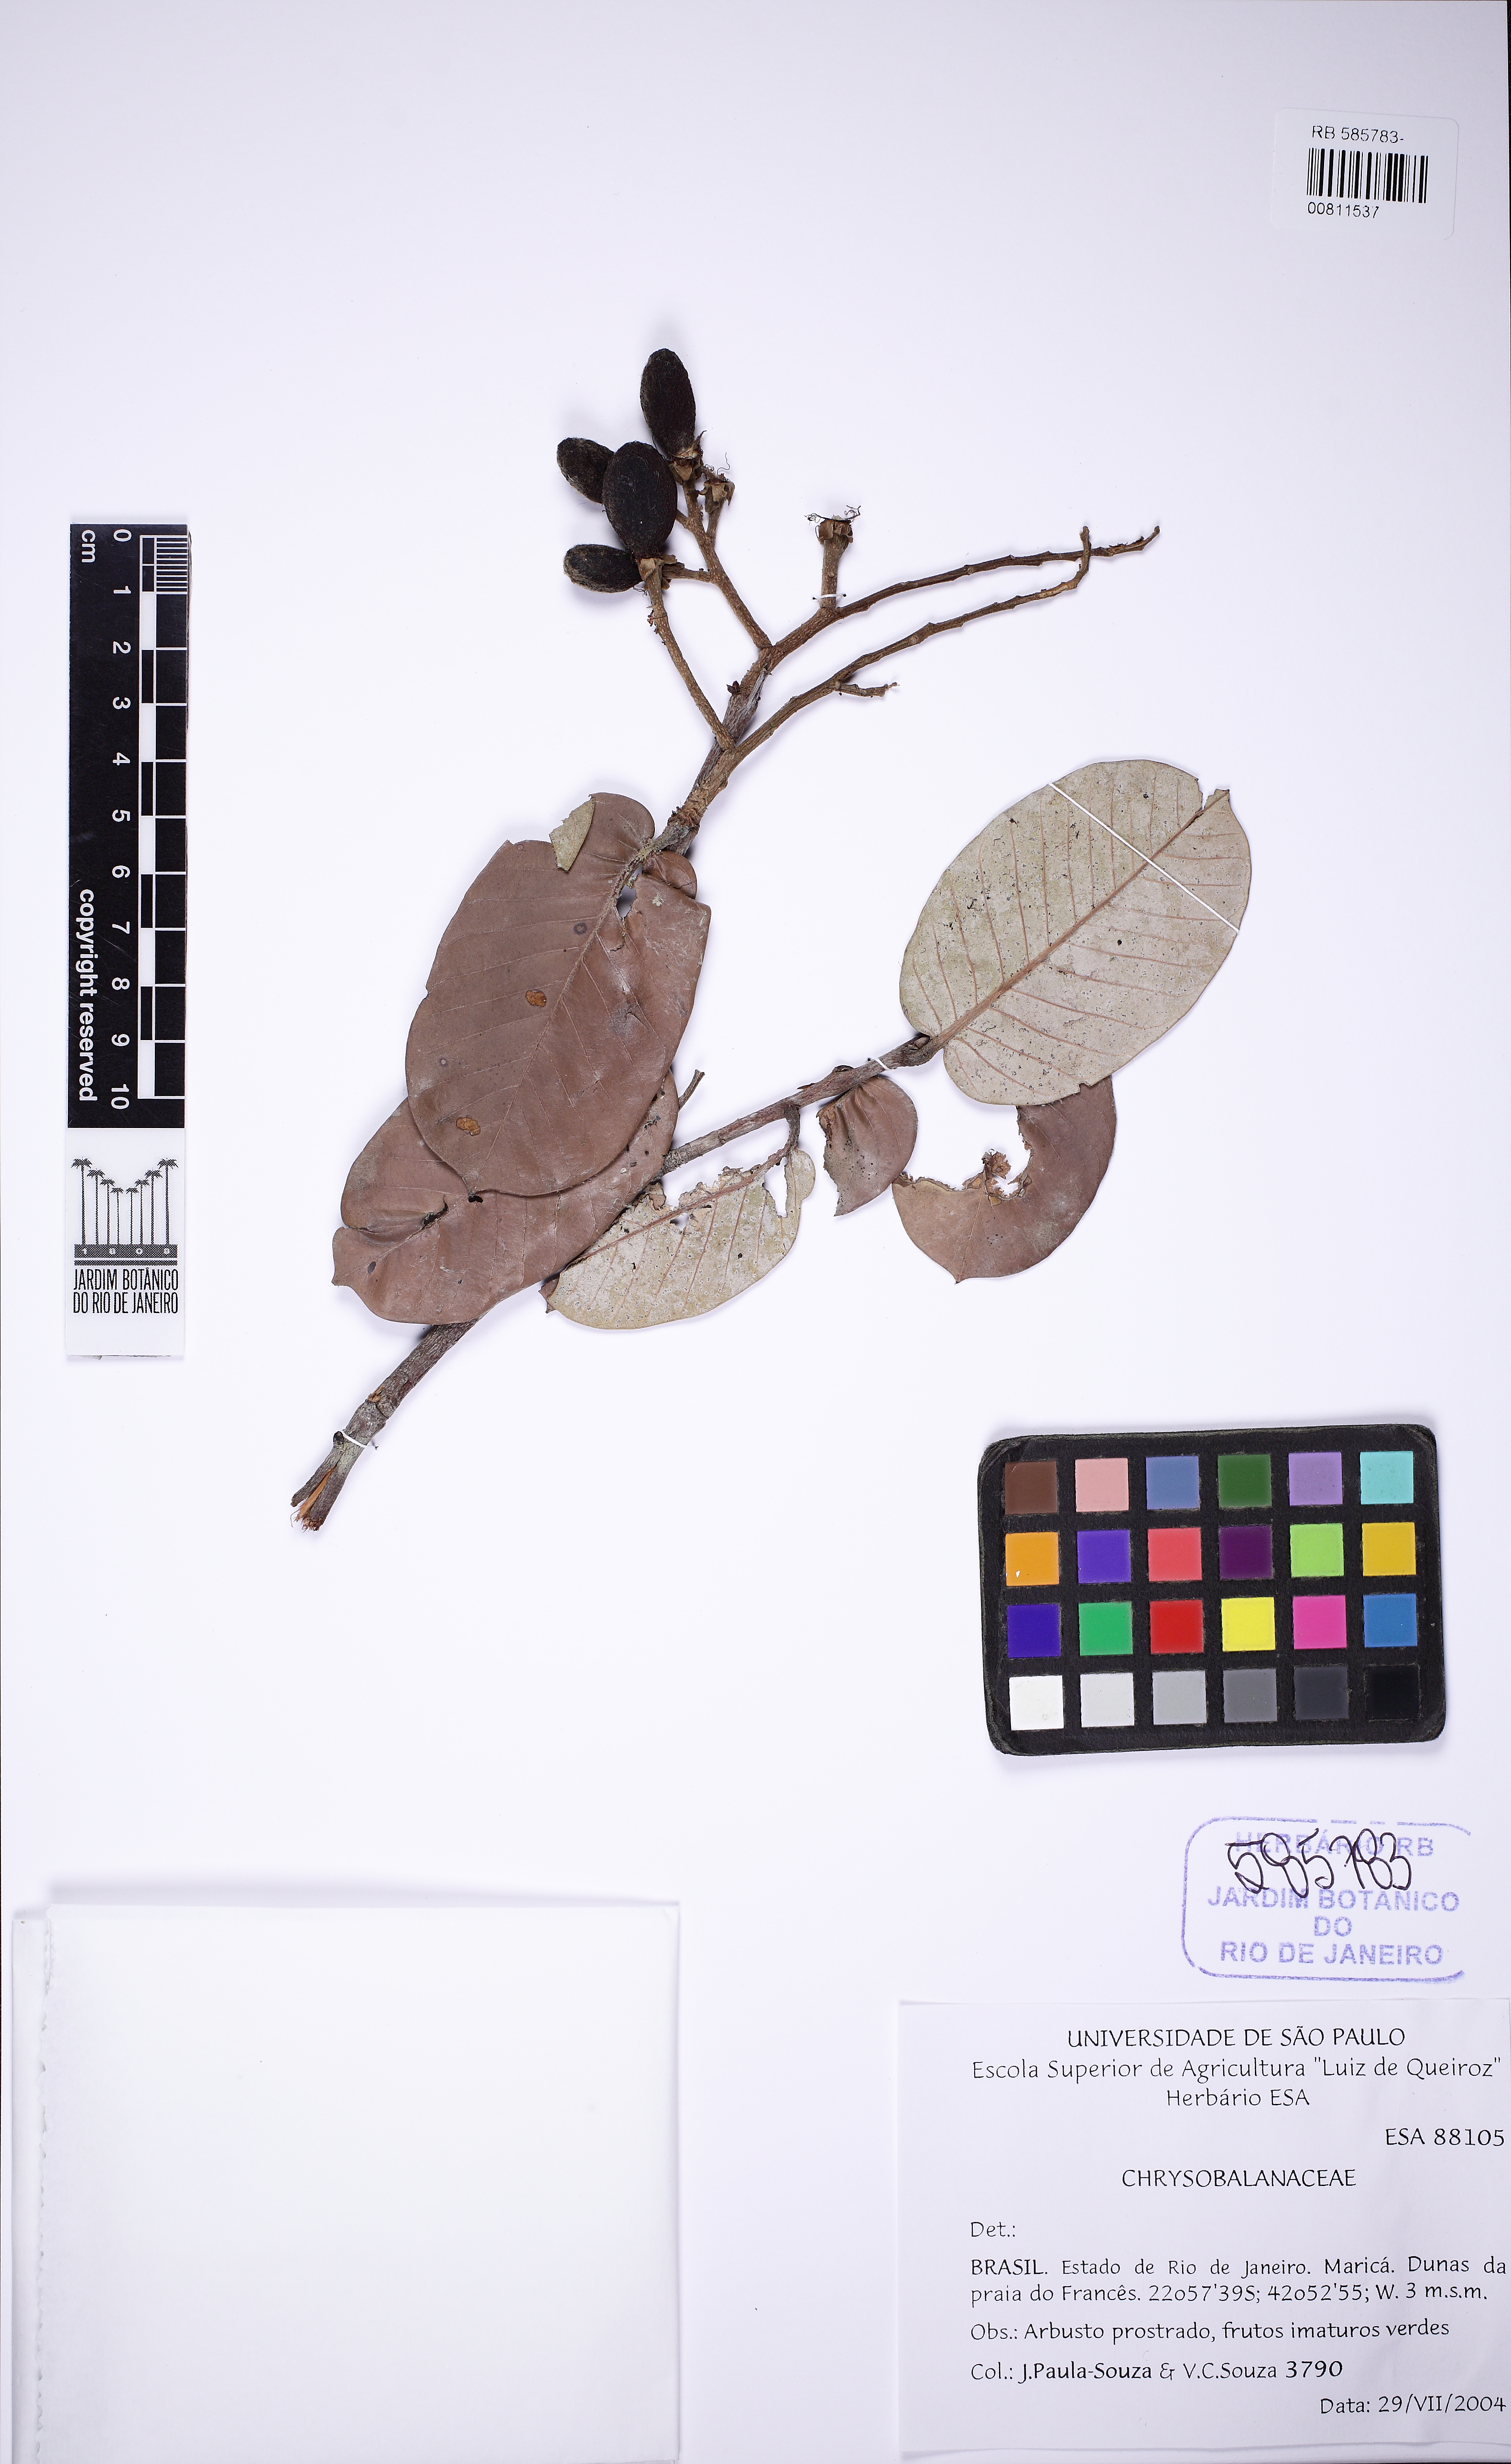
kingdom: Plantae
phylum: Tracheophyta
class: Magnoliopsida
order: Malpighiales
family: Chrysobalanaceae
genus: Couepia
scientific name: Couepia ovalifolia
